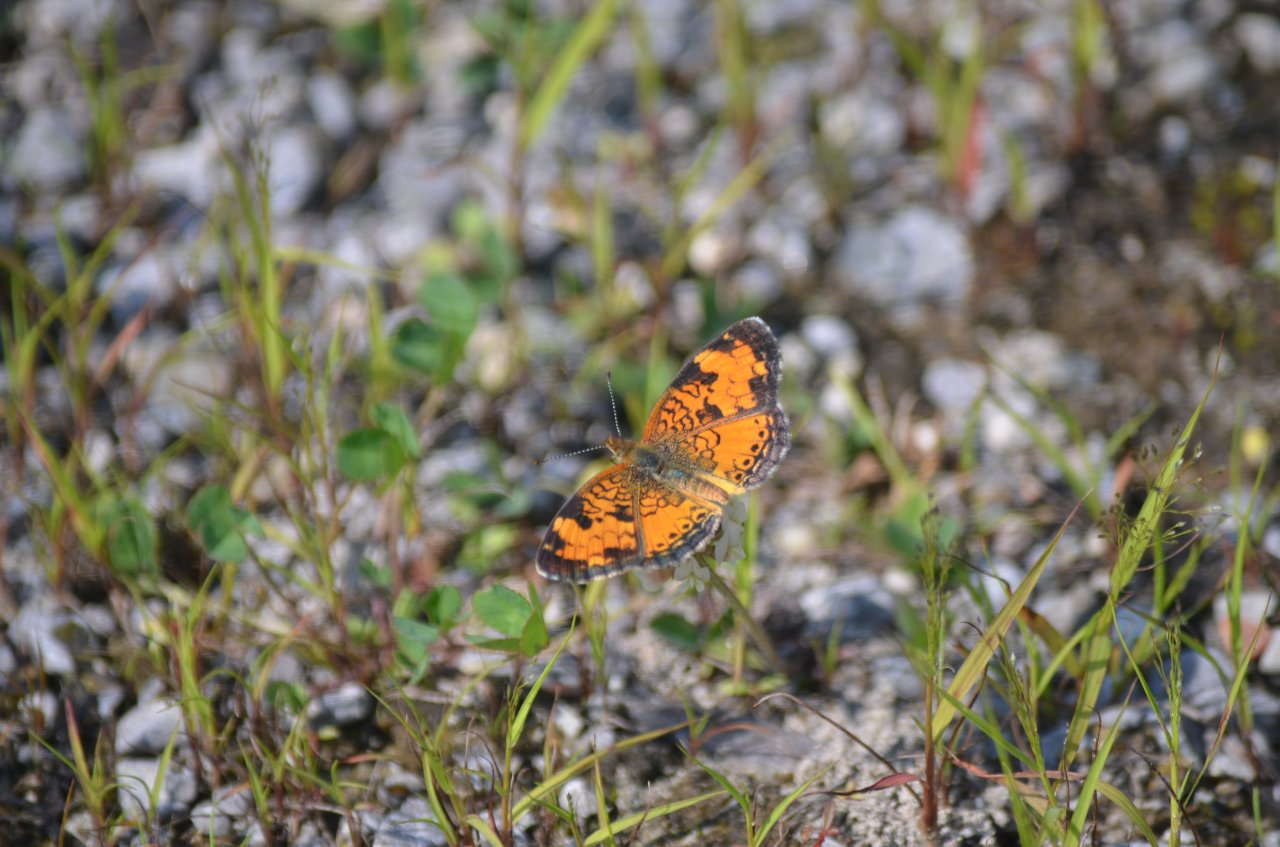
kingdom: Animalia
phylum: Arthropoda
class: Insecta
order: Lepidoptera
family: Nymphalidae
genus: Phyciodes
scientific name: Phyciodes tharos
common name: Northern Crescent
